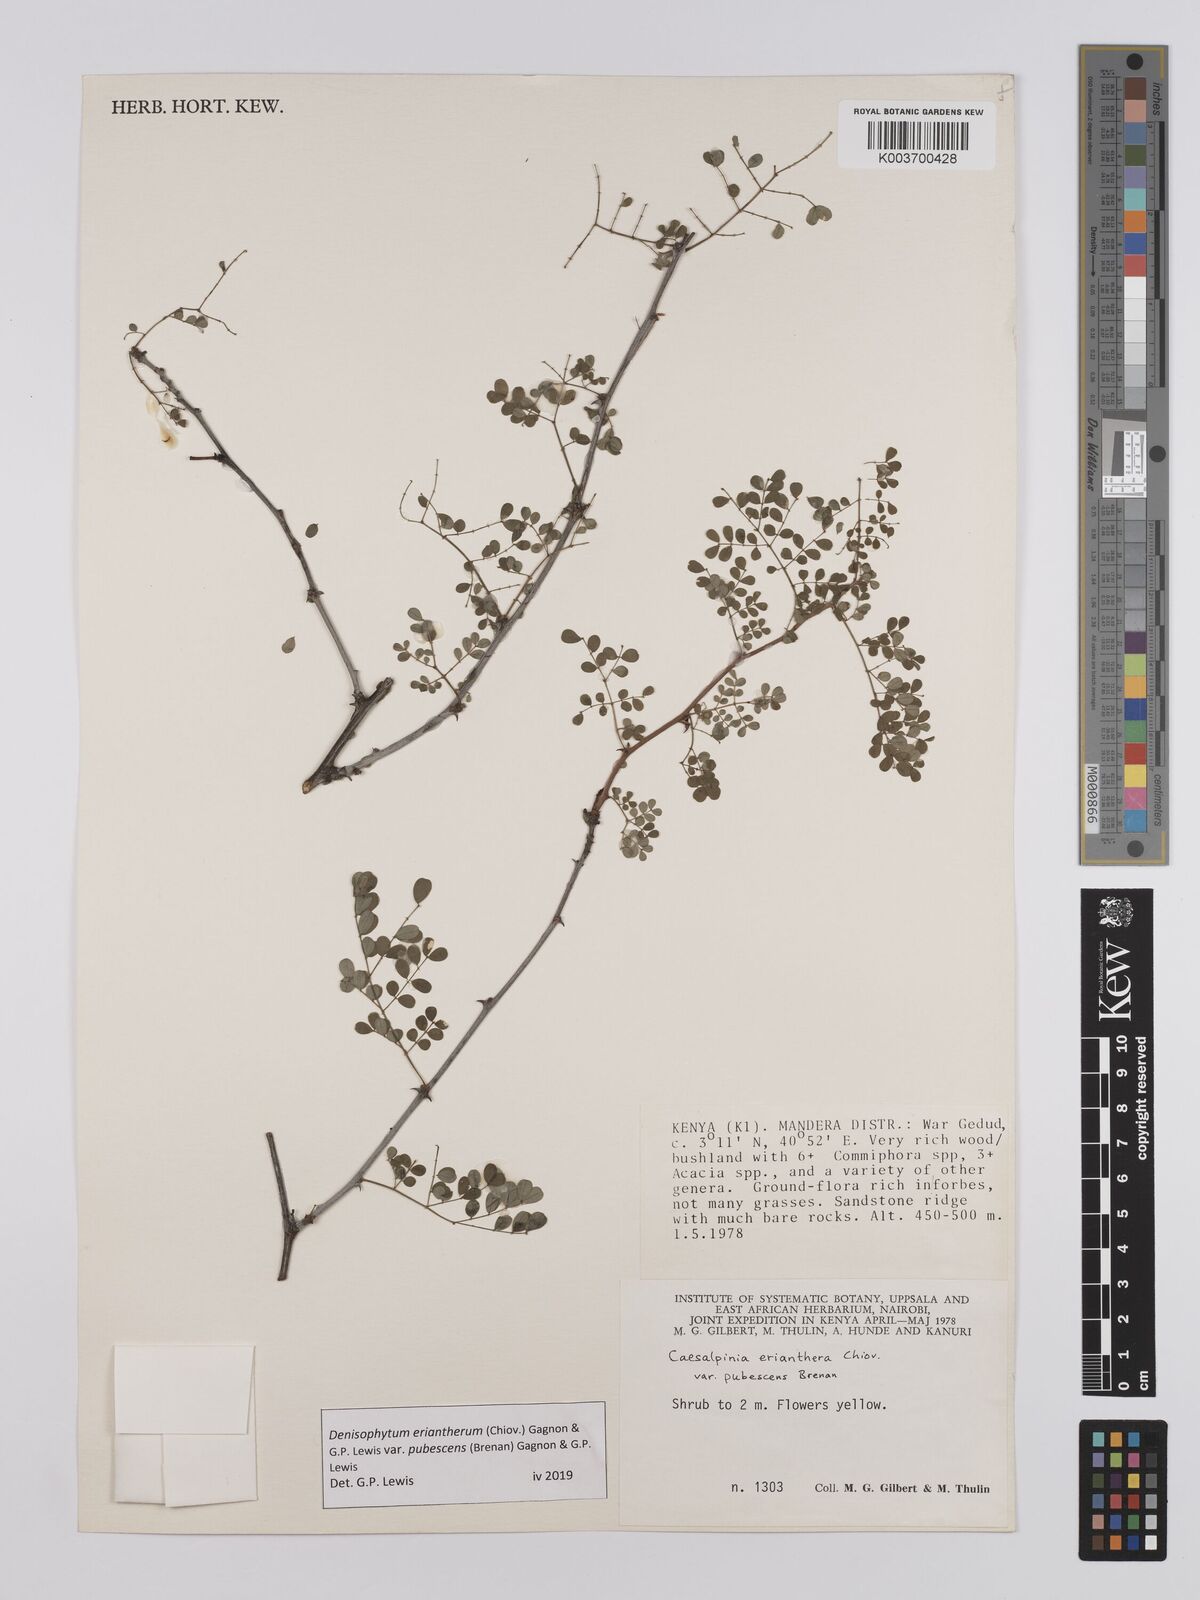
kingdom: Plantae
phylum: Tracheophyta
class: Magnoliopsida
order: Fabales
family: Fabaceae
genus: Denisophytum
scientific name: Denisophytum eriantherum
